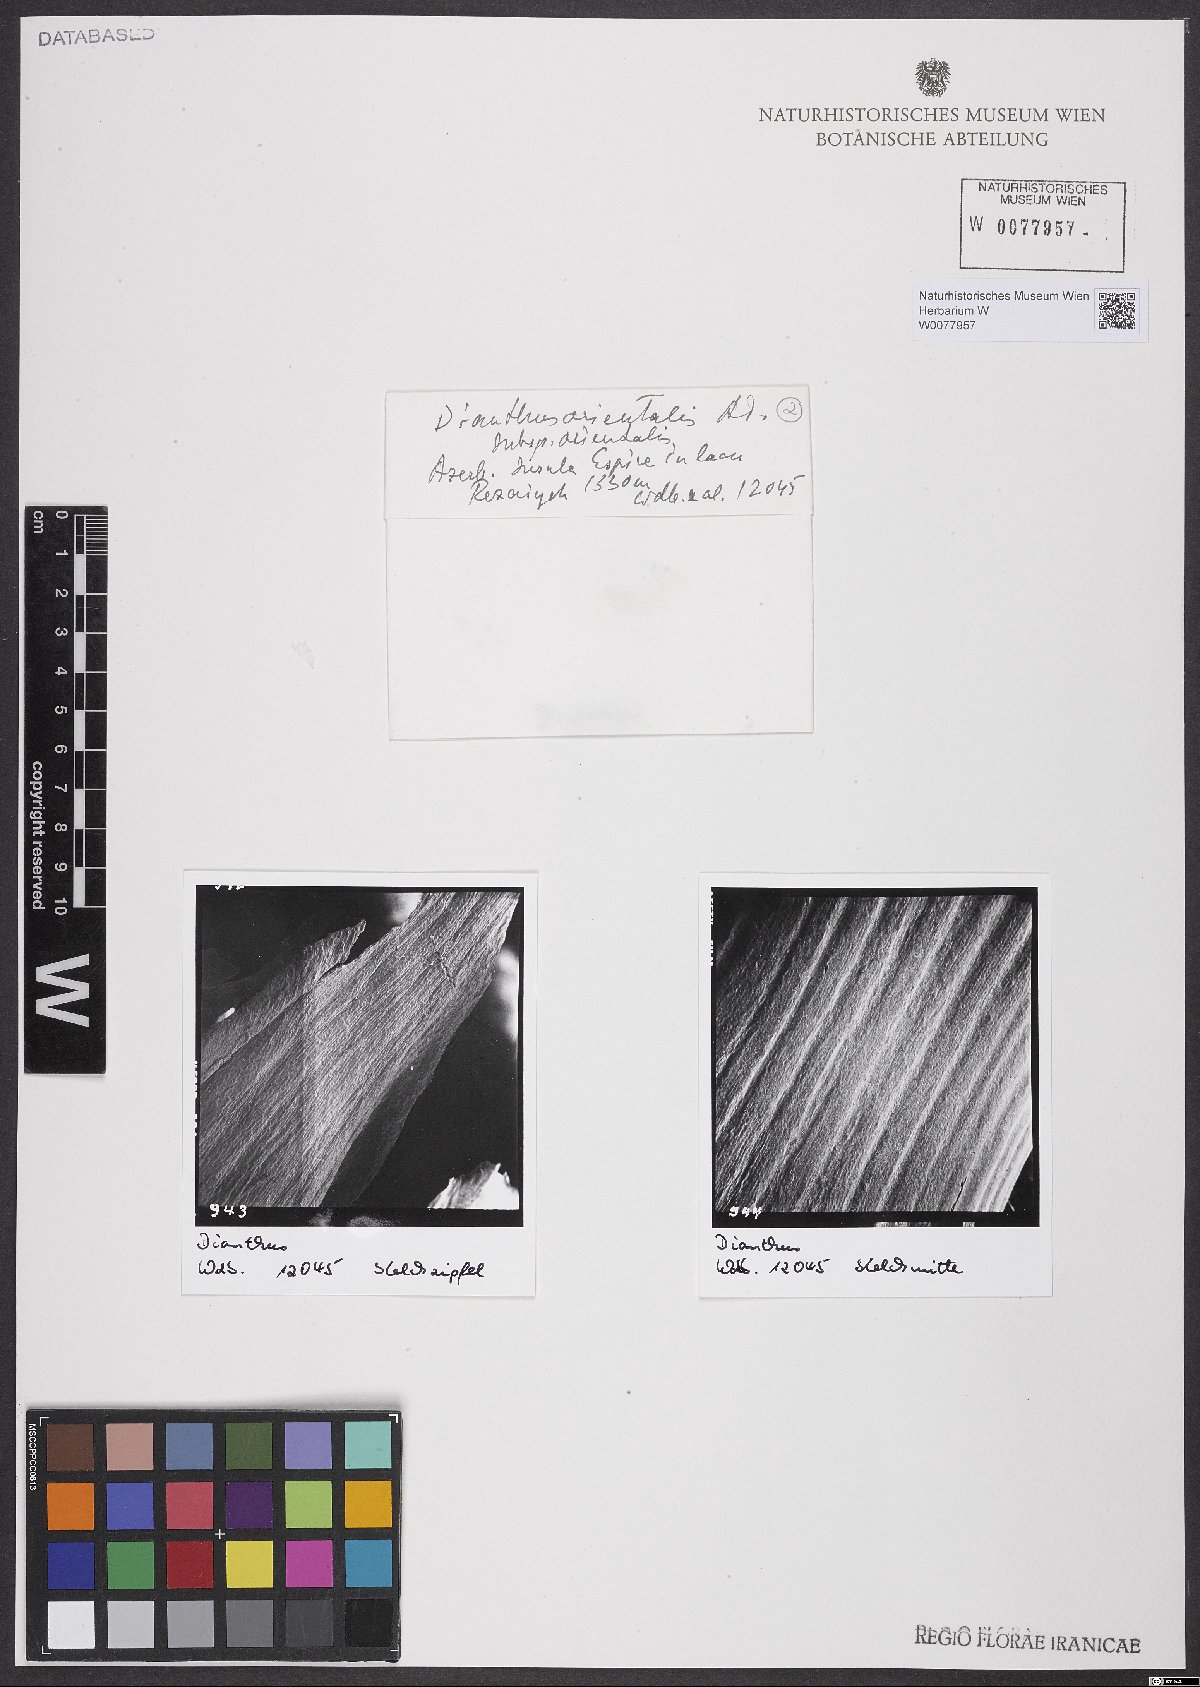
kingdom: Plantae
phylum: Tracheophyta
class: Magnoliopsida
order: Caryophyllales
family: Caryophyllaceae
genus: Dianthus
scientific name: Dianthus orientalis
